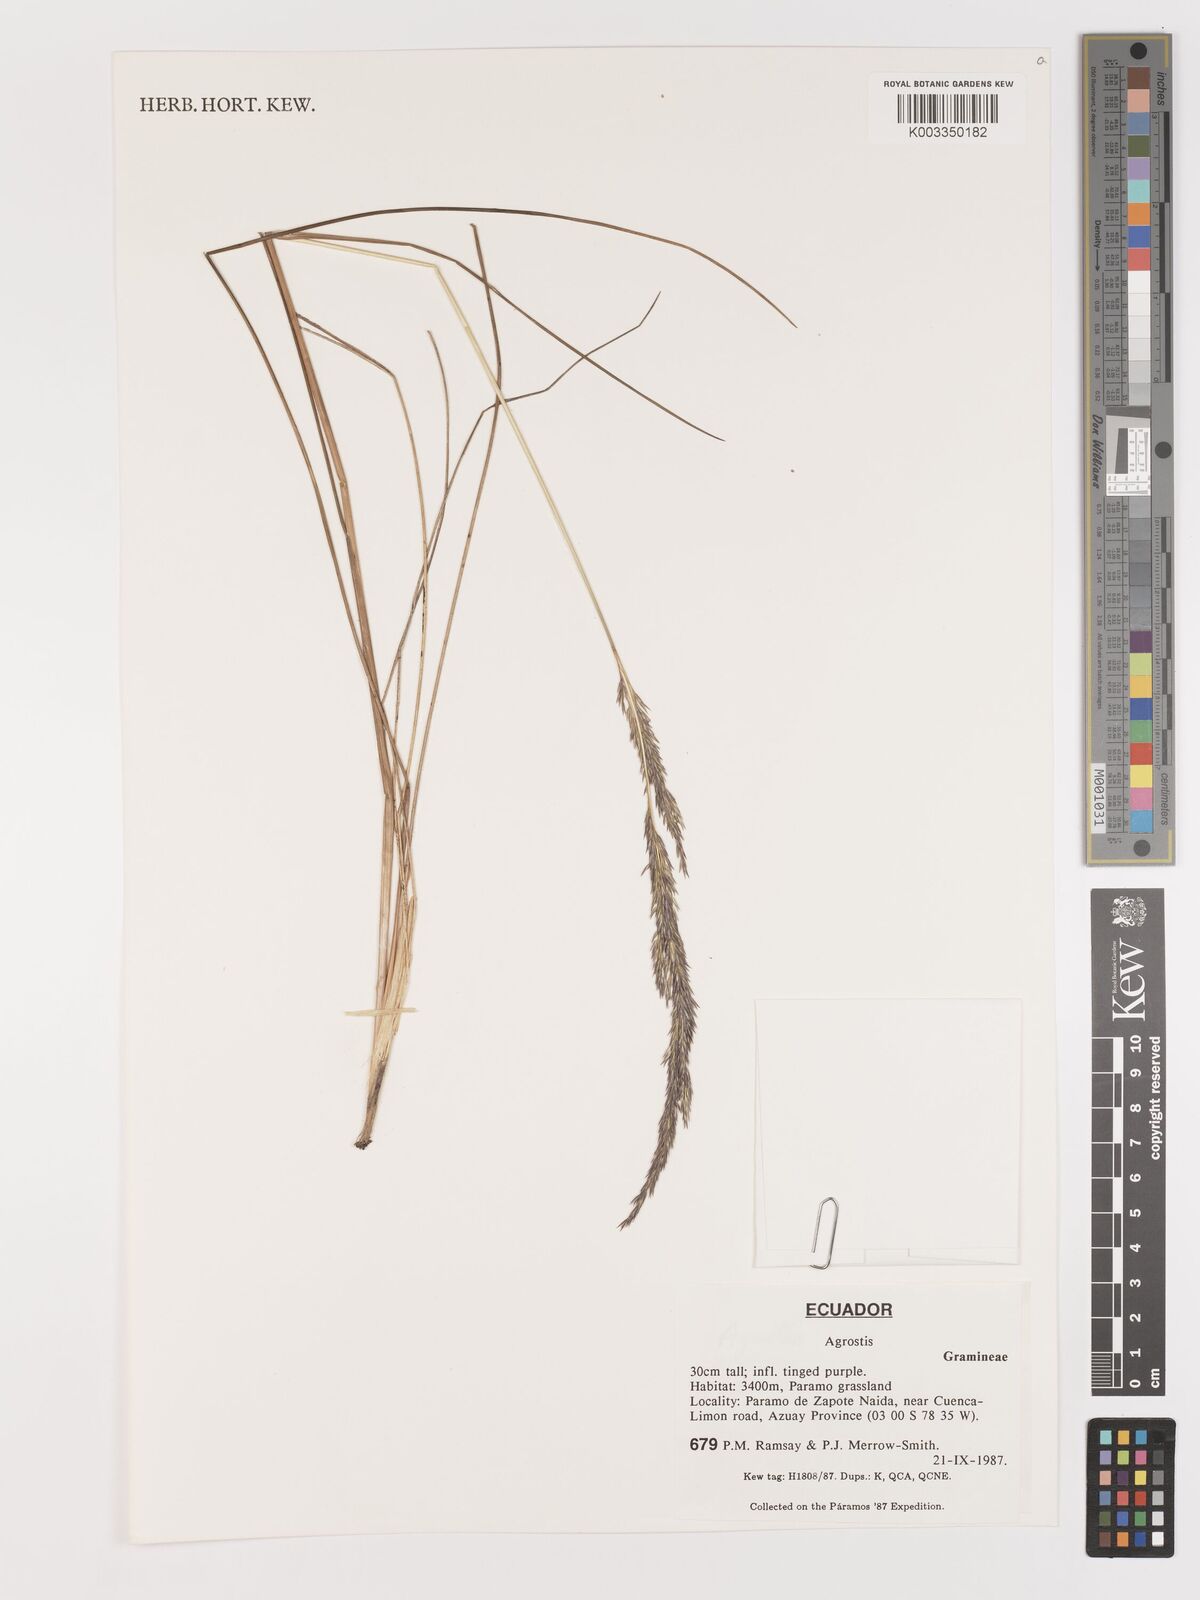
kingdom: Plantae
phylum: Tracheophyta
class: Liliopsida
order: Poales
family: Poaceae
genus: Agrostis
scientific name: Agrostis
